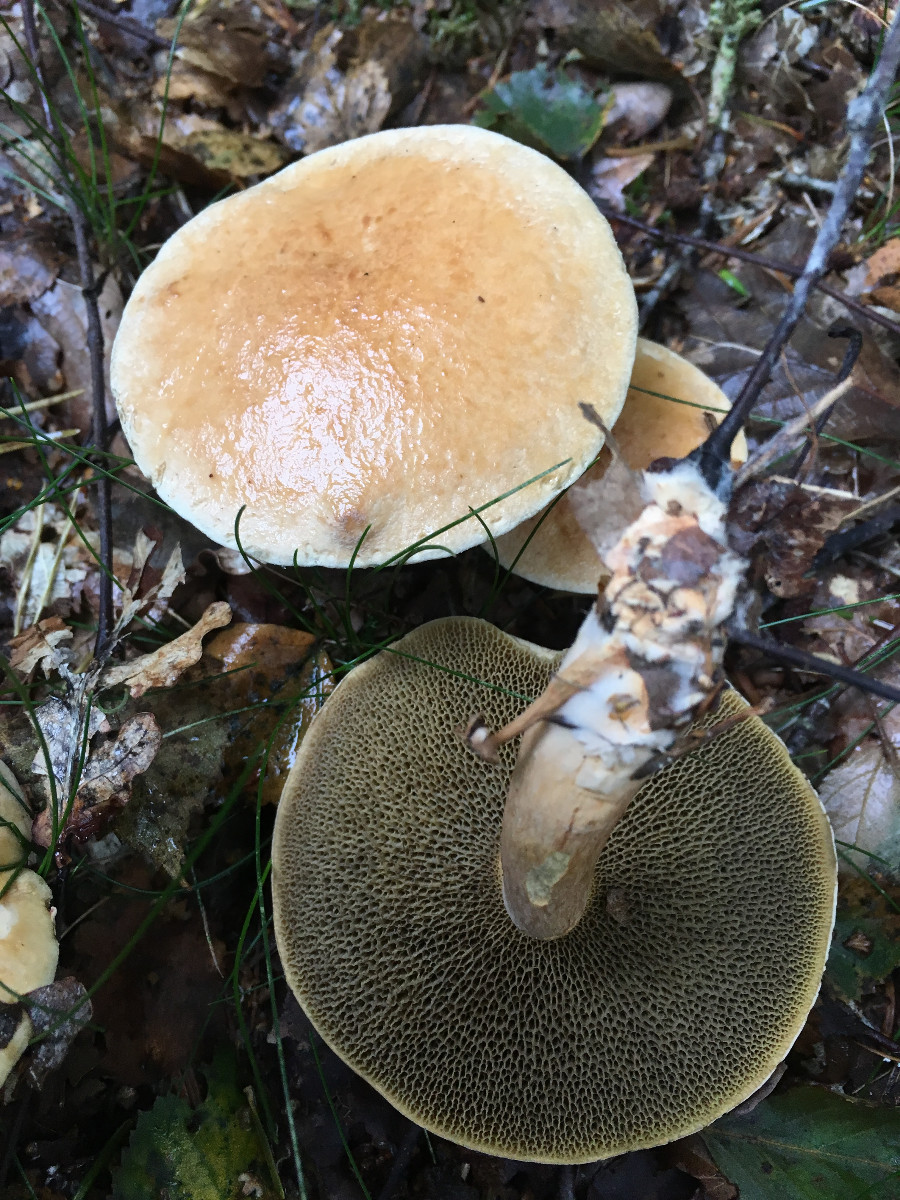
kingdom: Fungi
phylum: Basidiomycota
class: Agaricomycetes
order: Boletales
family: Suillaceae
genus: Suillus
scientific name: Suillus bovinus
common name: grovporet slimrørhat
